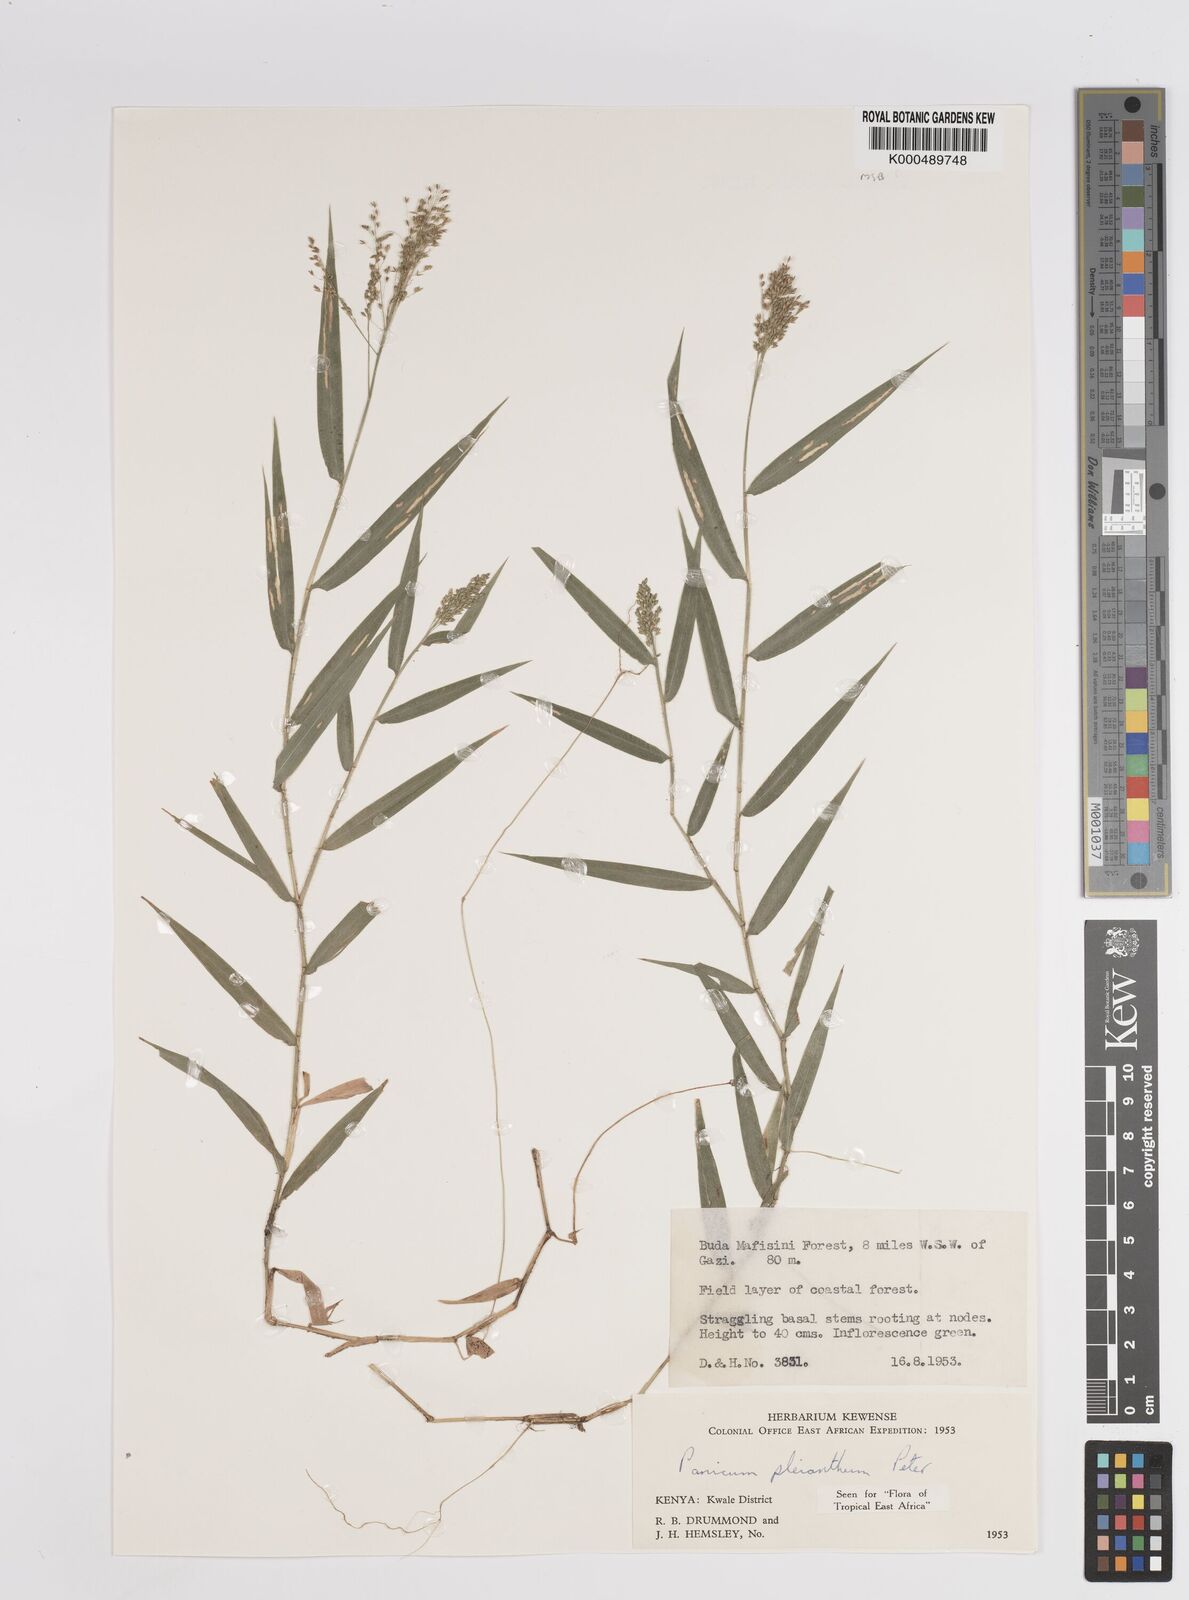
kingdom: Plantae
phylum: Tracheophyta
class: Liliopsida
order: Poales
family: Poaceae
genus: Panicum
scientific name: Panicum pleianthum
